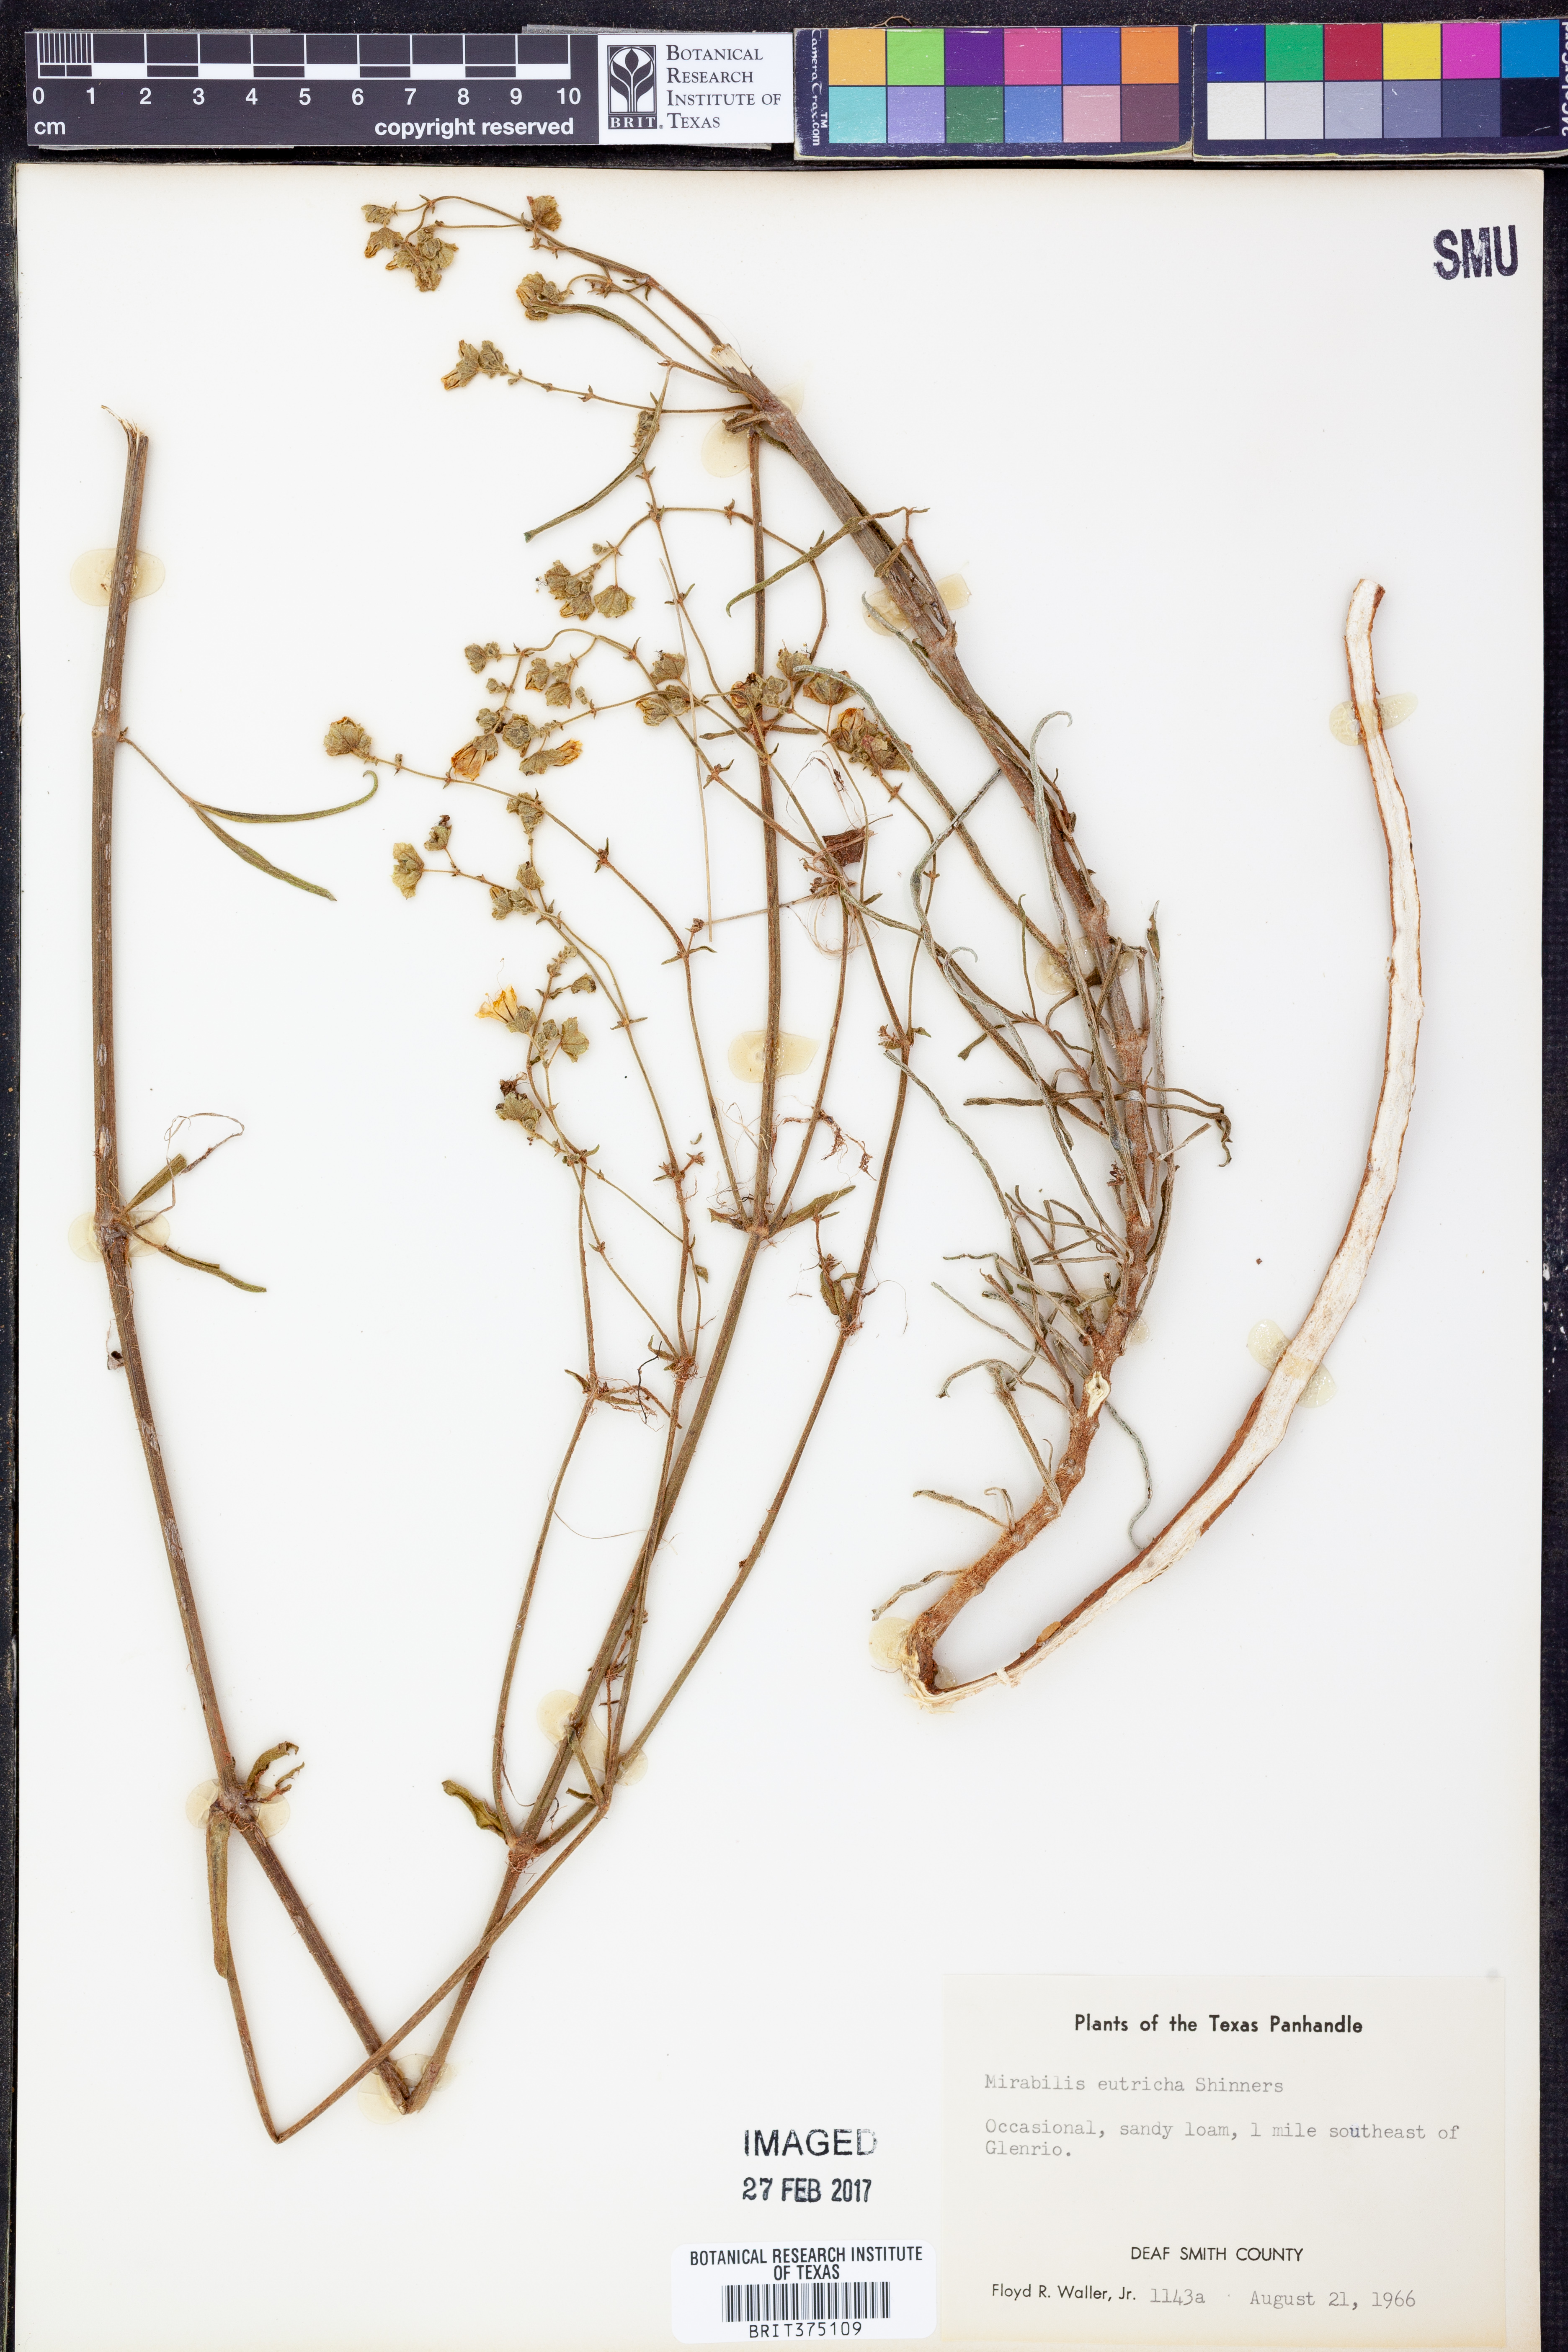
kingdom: Plantae
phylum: Tracheophyta
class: Magnoliopsida
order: Caryophyllales
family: Nyctaginaceae
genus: Mirabilis
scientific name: Mirabilis albida
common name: Hairy four-o'clock
